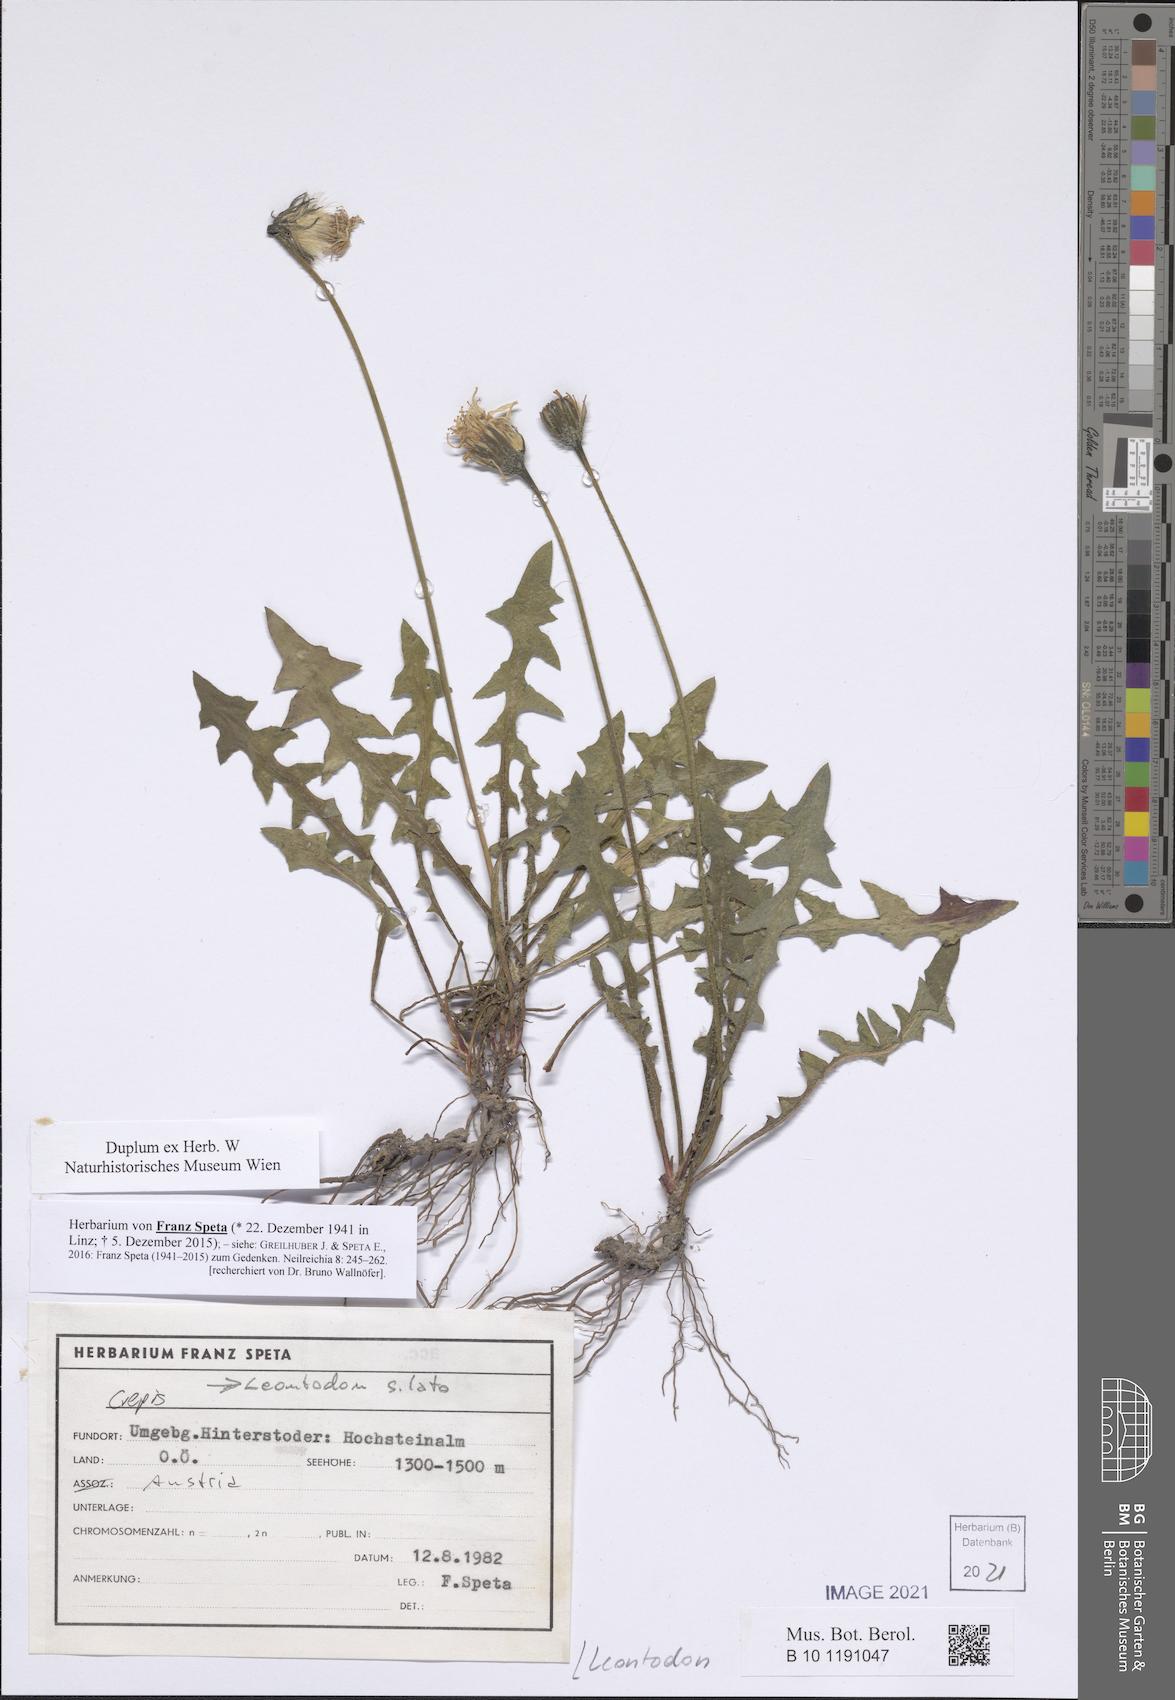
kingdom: Plantae
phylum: Tracheophyta
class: Magnoliopsida
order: Asterales
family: Asteraceae
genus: Leontodon
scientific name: Leontodon
